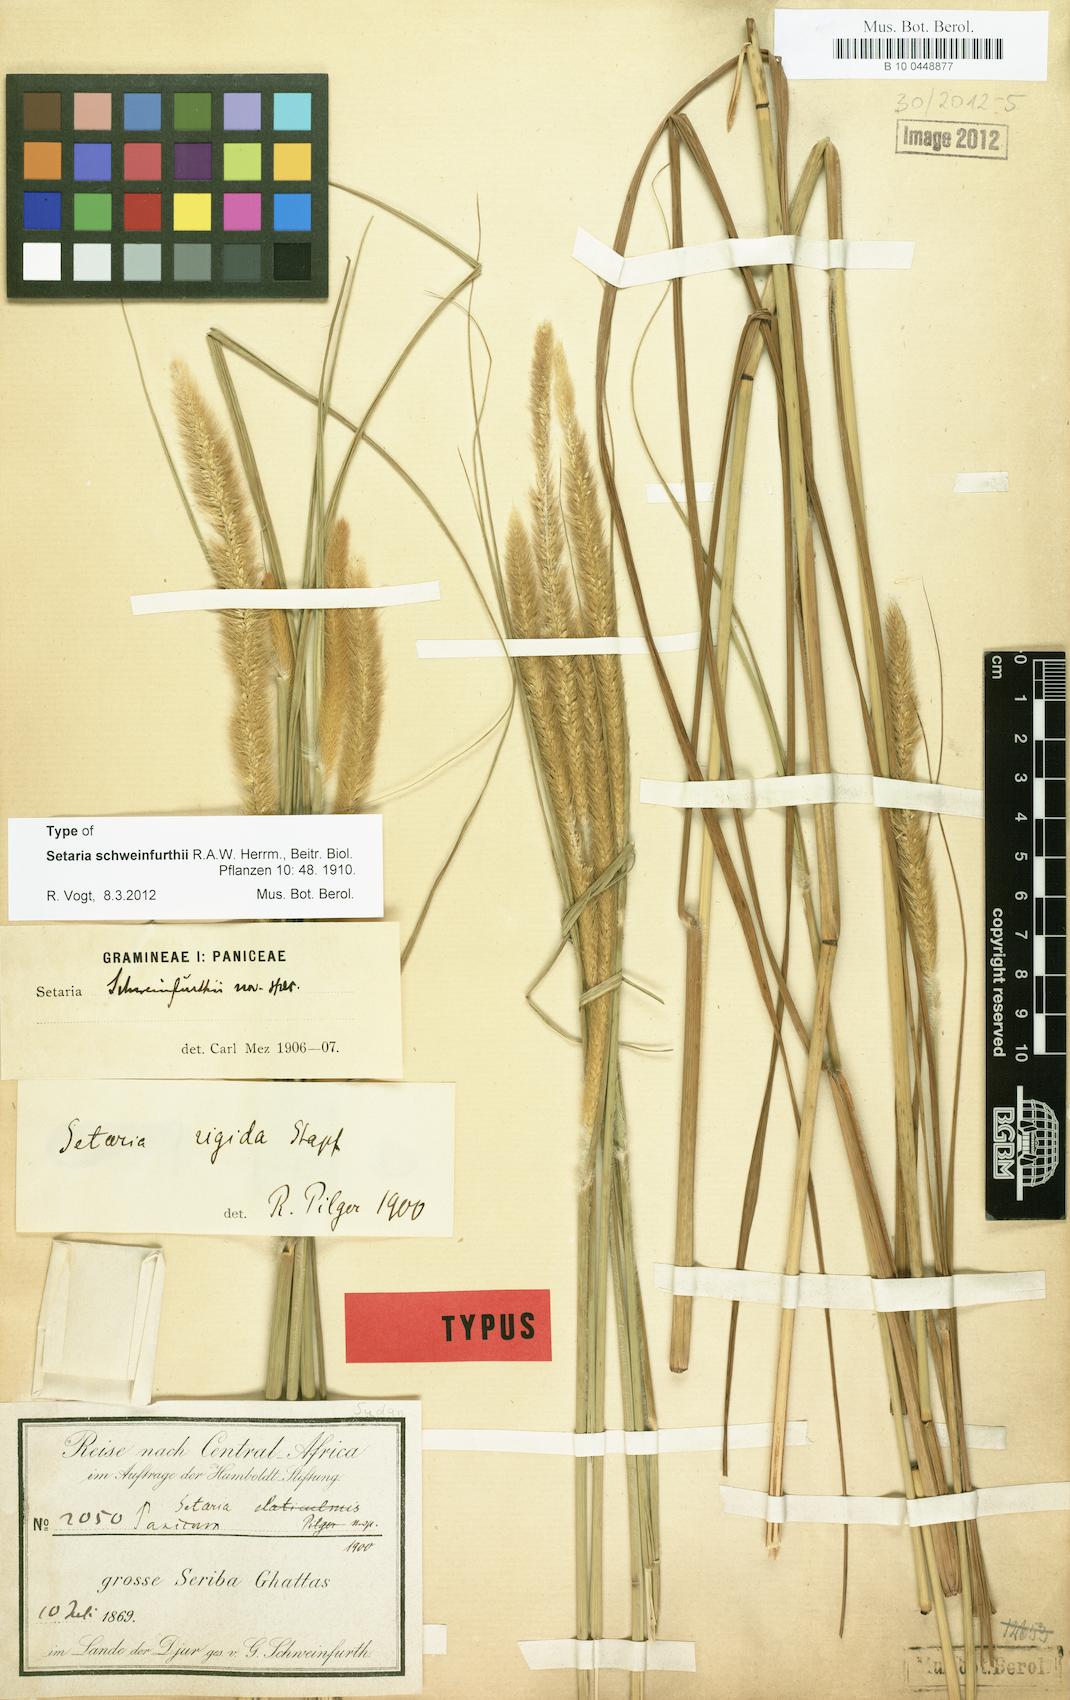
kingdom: Plantae
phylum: Tracheophyta
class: Liliopsida
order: Poales
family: Poaceae
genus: Setaria
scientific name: Setaria restioidea
